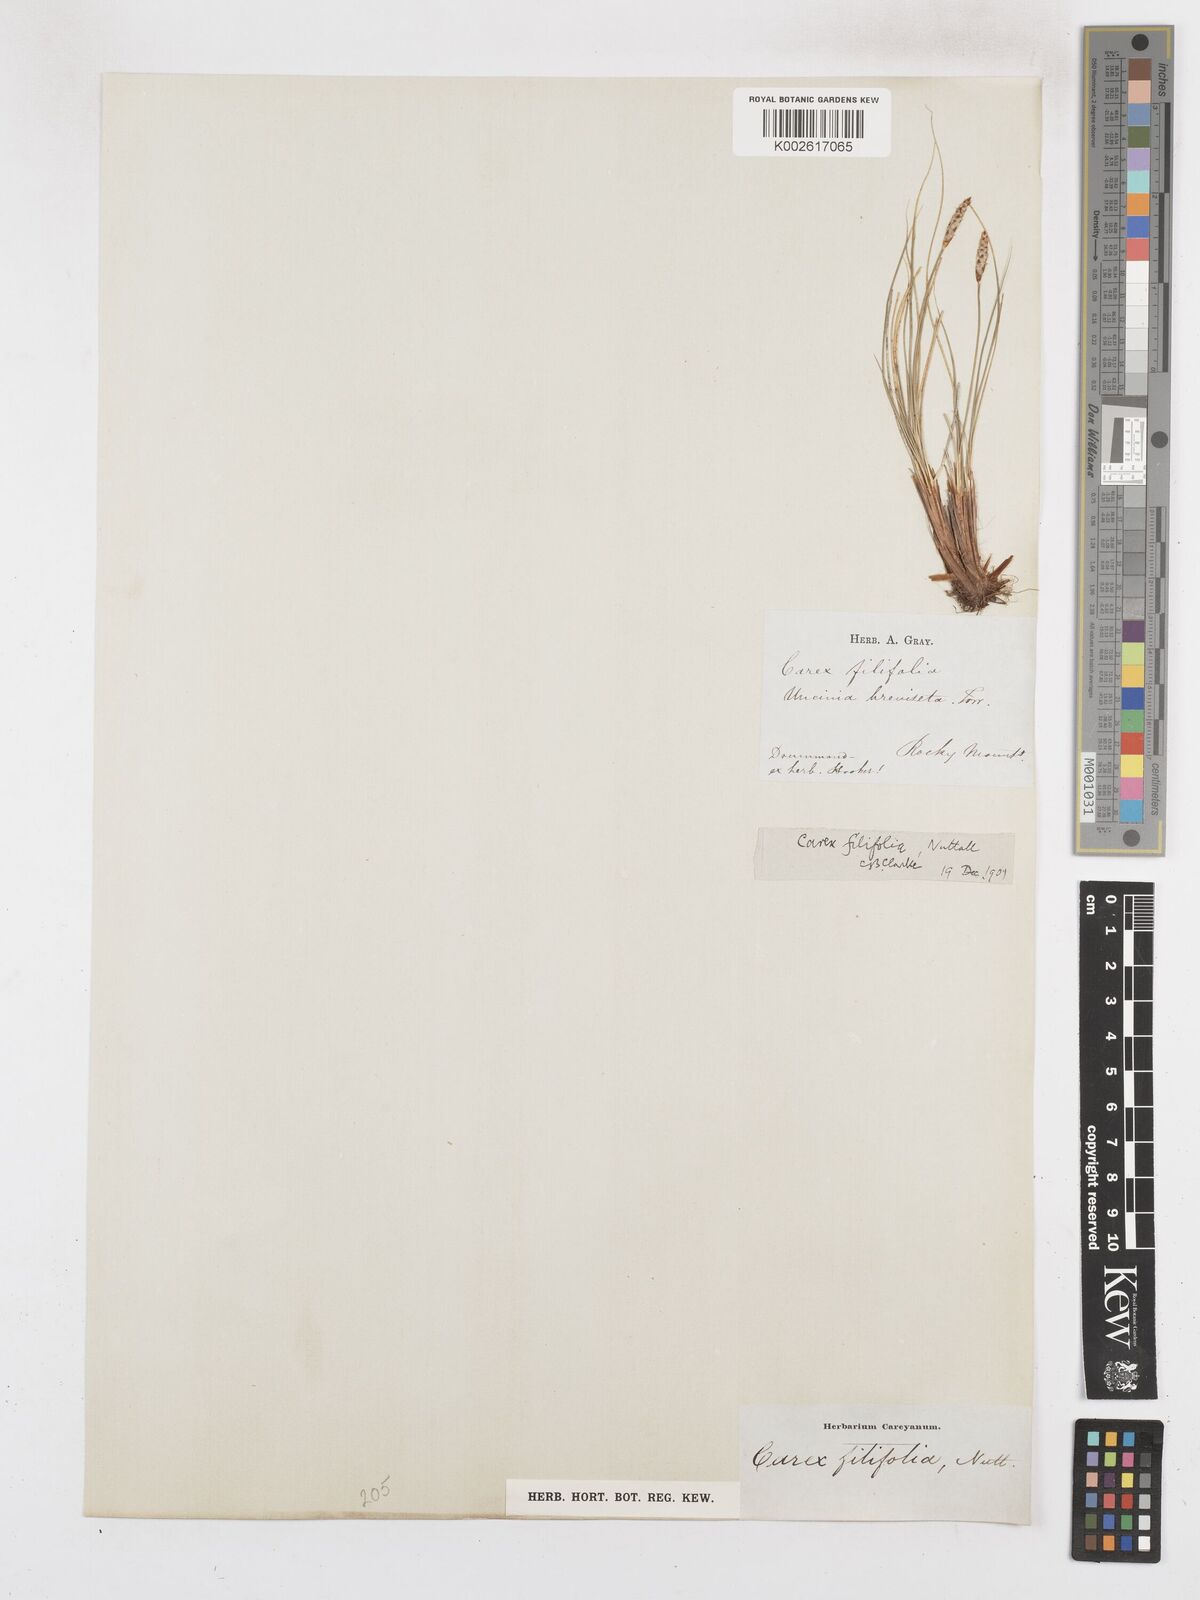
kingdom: Plantae
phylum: Tracheophyta
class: Liliopsida
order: Poales
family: Cyperaceae
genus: Carex
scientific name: Carex filifolia
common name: Threadleaf sedge
